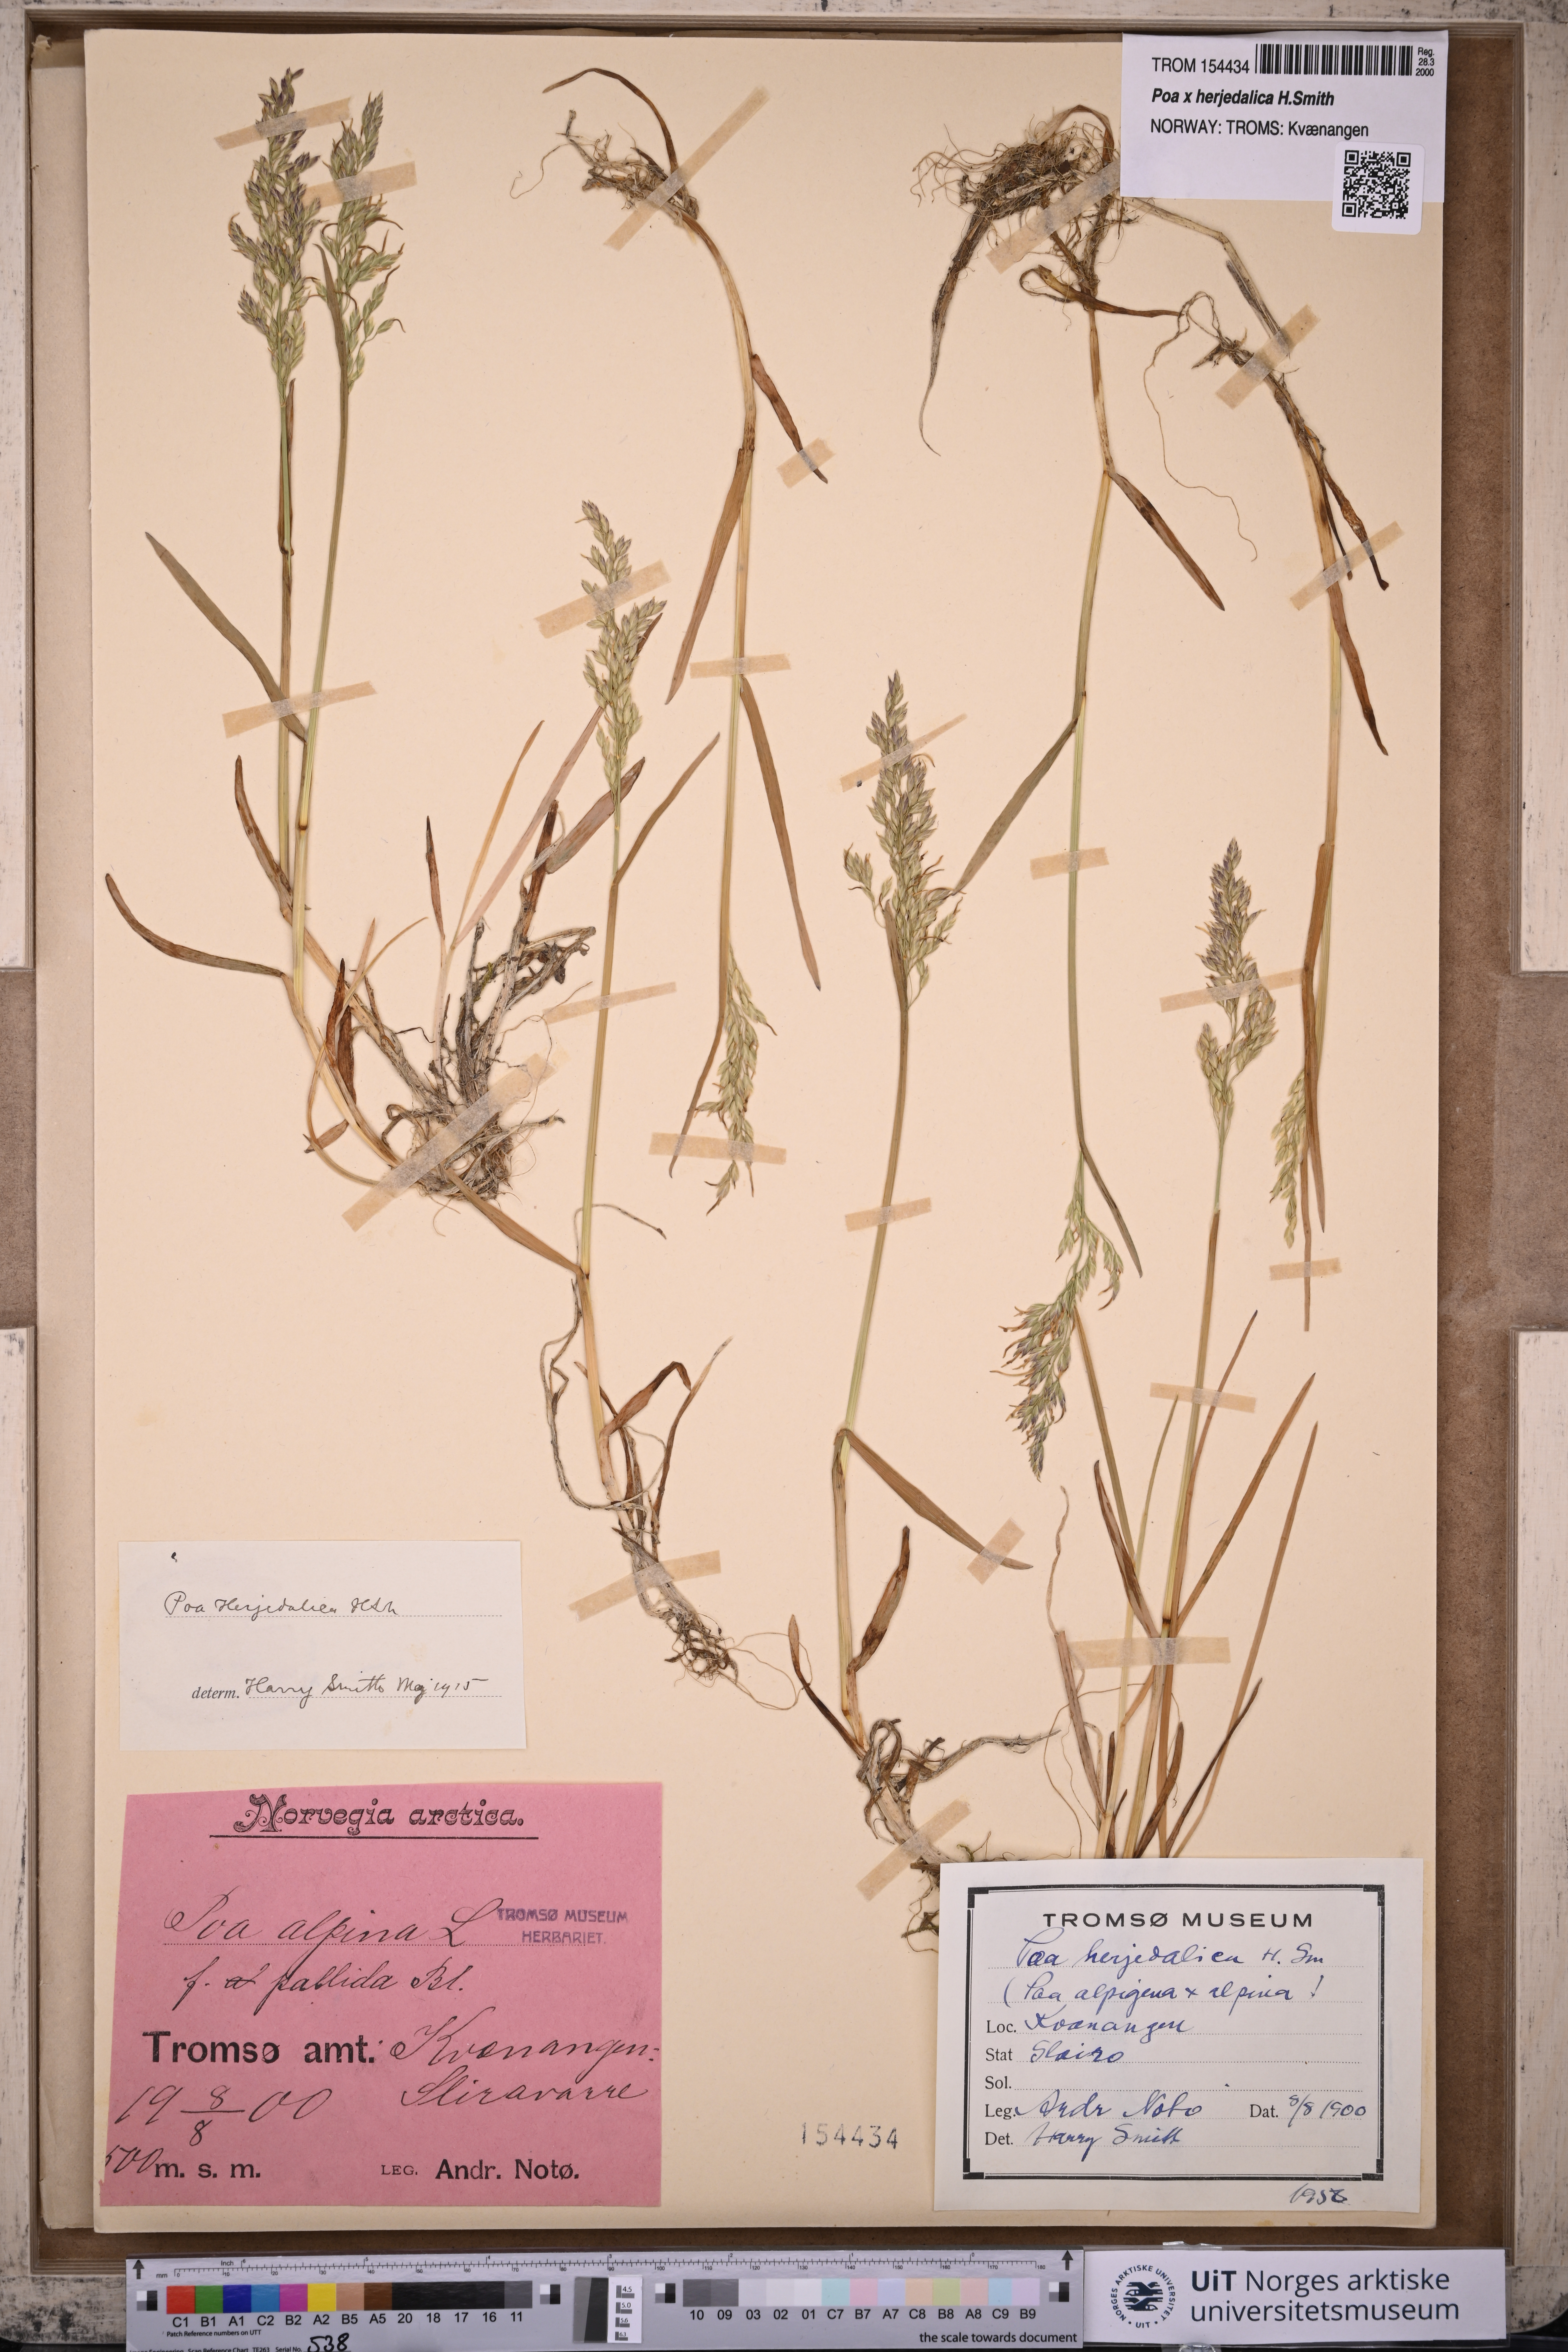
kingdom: Plantae
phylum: Tracheophyta
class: Liliopsida
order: Poales
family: Poaceae
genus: Poa
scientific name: Poa herjedalica
